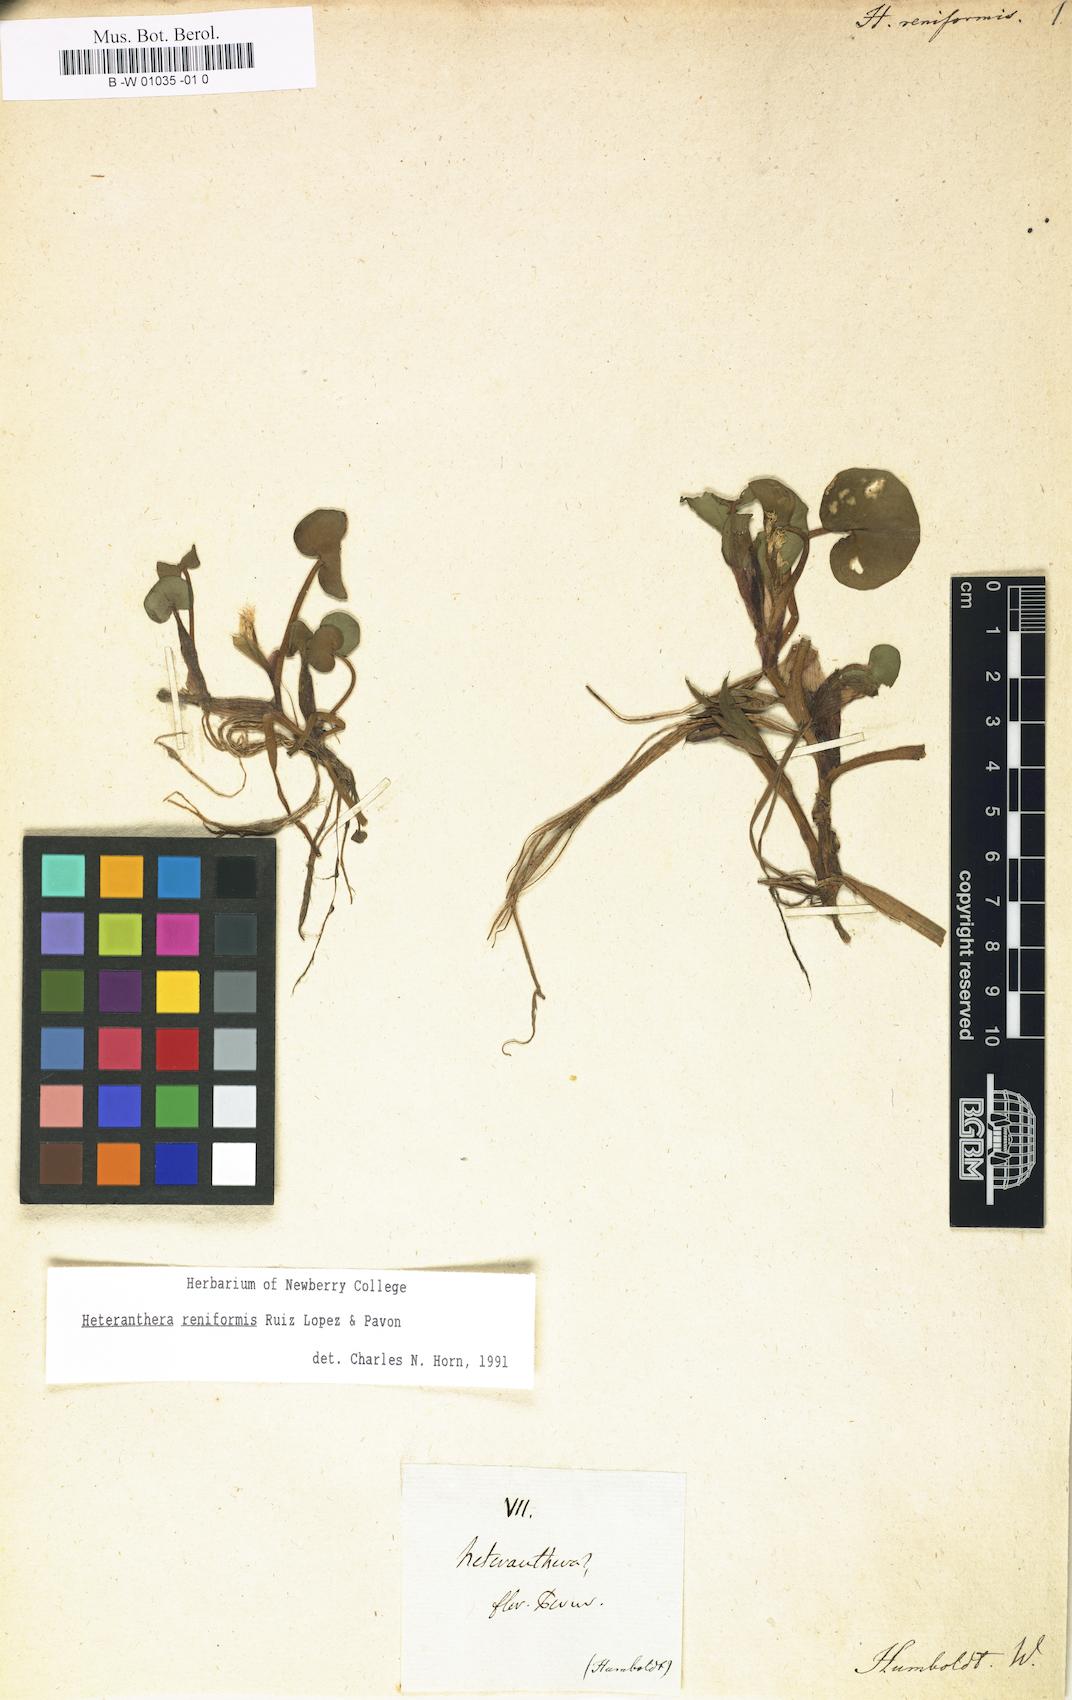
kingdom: Plantae
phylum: Tracheophyta
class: Liliopsida
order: Commelinales
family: Pontederiaceae
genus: Heteranthera
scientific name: Heteranthera reniformis
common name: Kidneyleaf mudplantain
